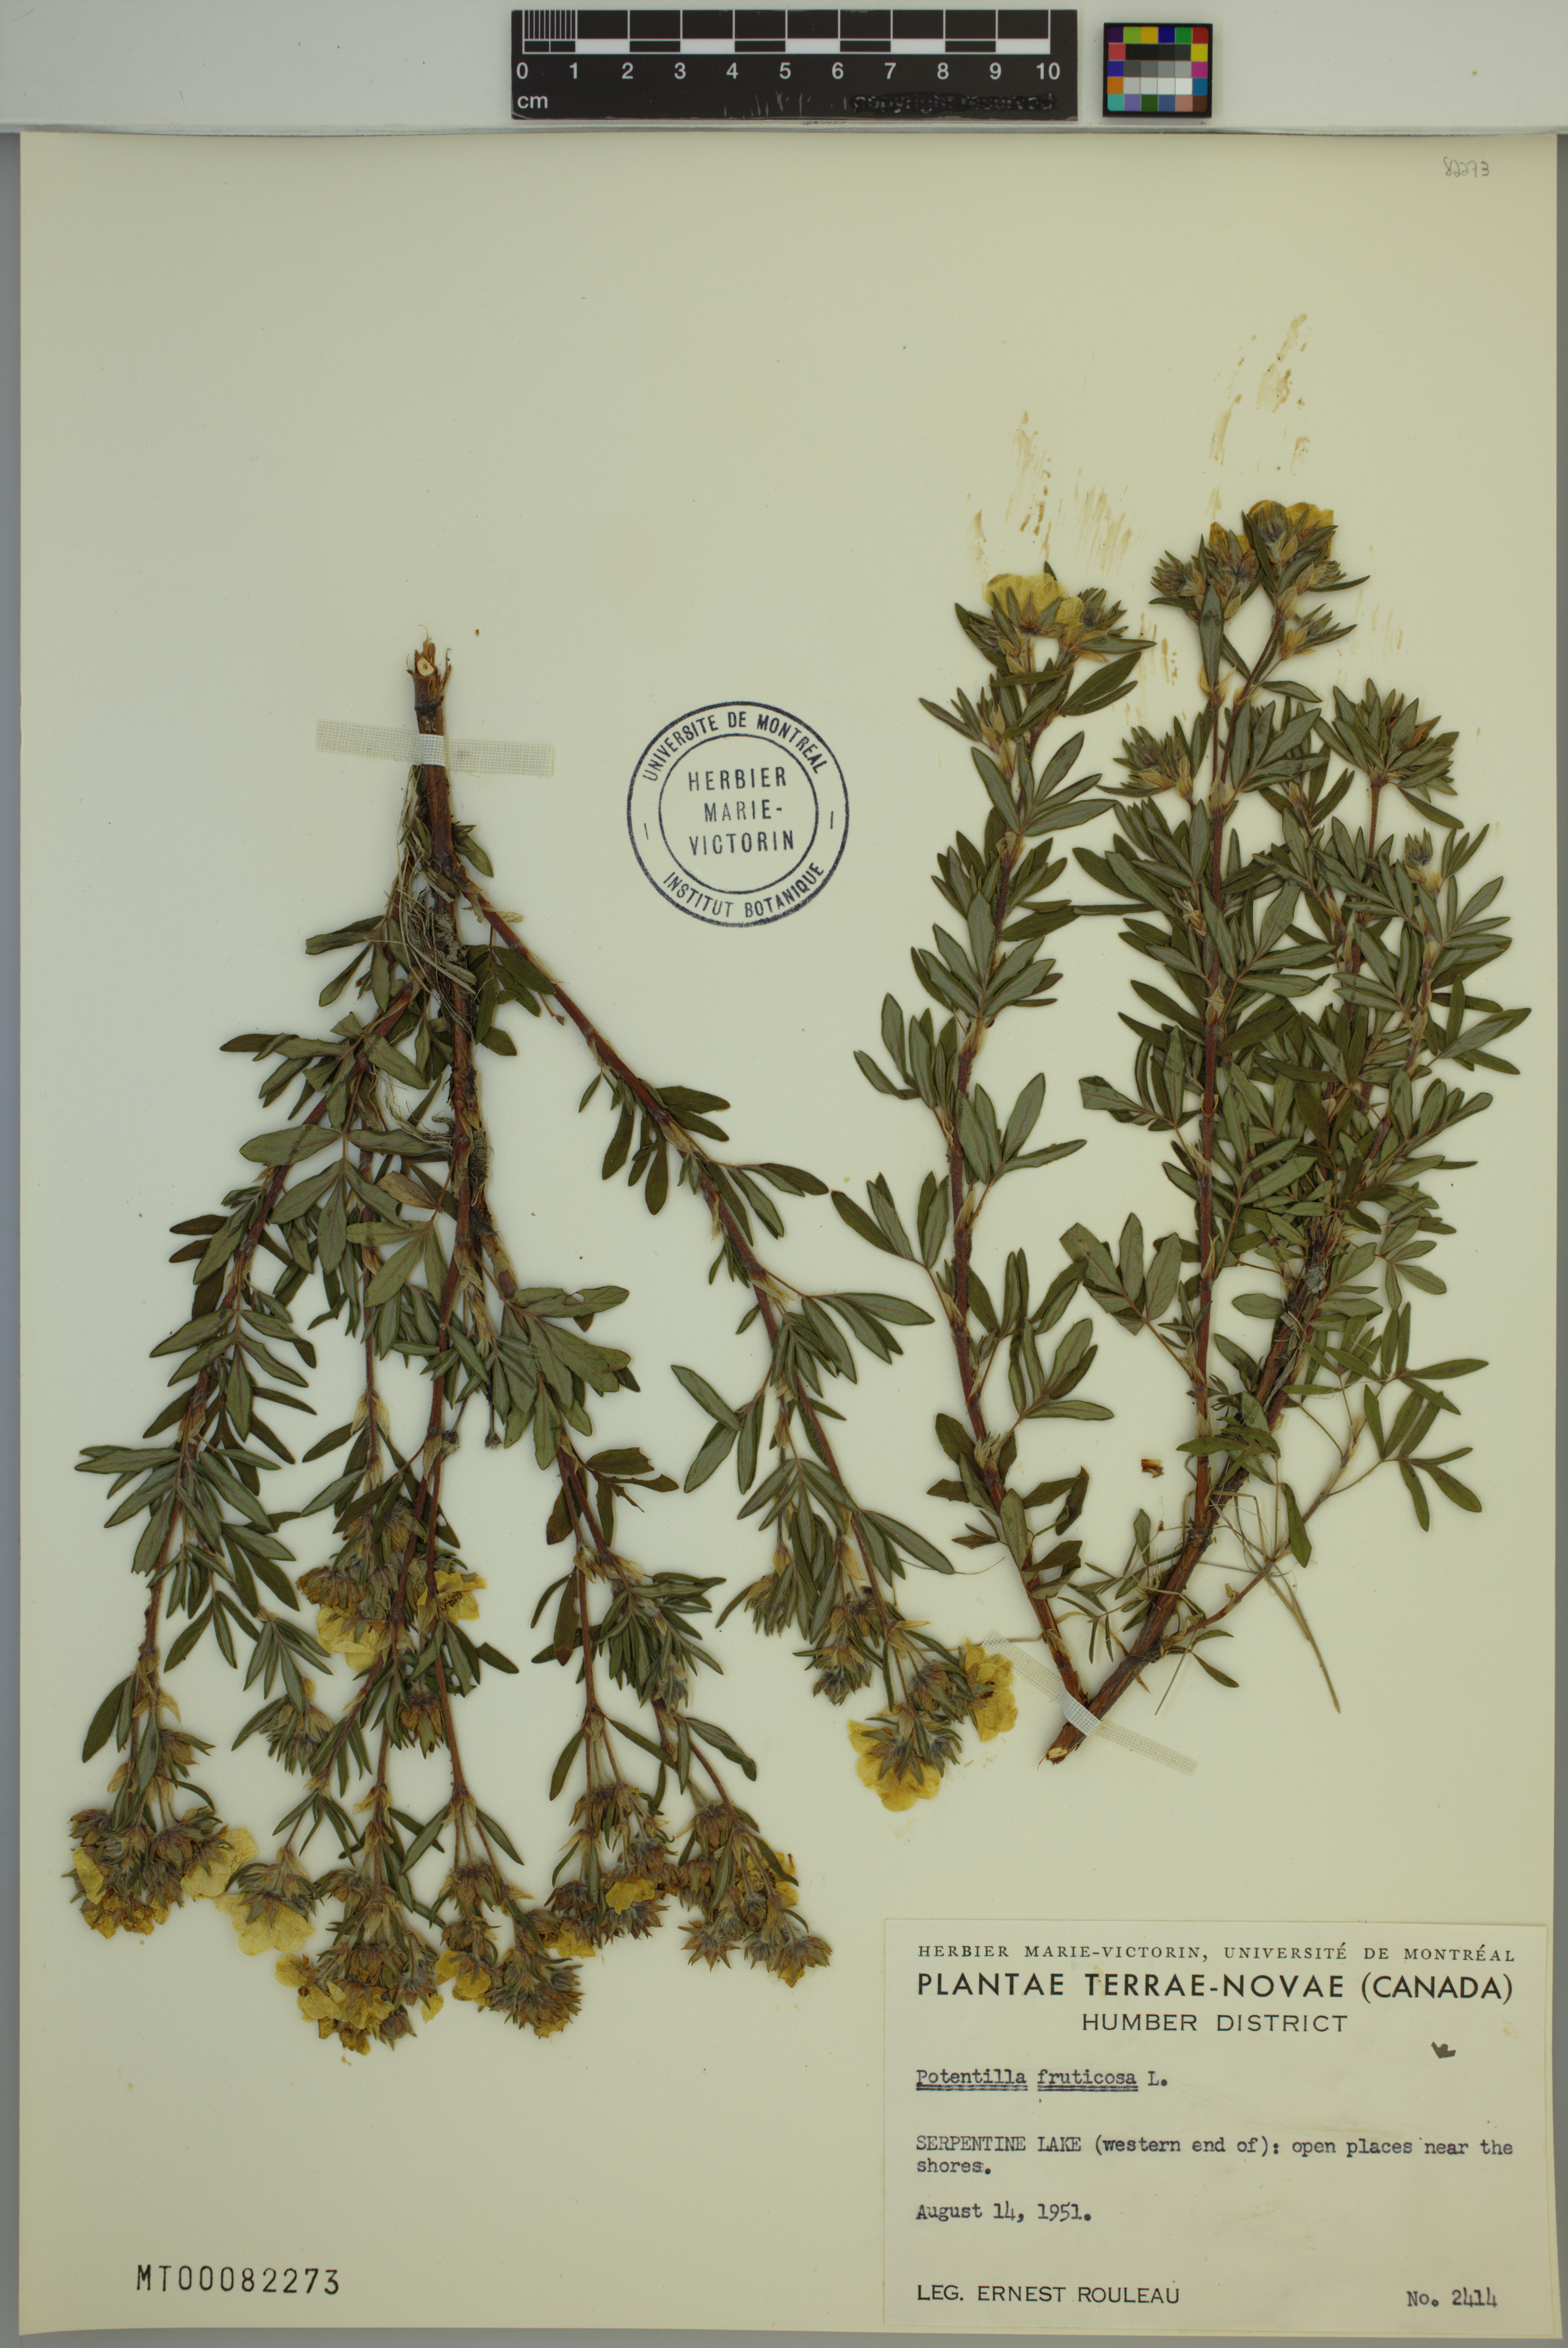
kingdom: Plantae
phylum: Tracheophyta
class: Magnoliopsida
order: Rosales
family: Rosaceae
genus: Dasiphora
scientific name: Dasiphora fruticosa
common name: Shrubby cinquefoil
